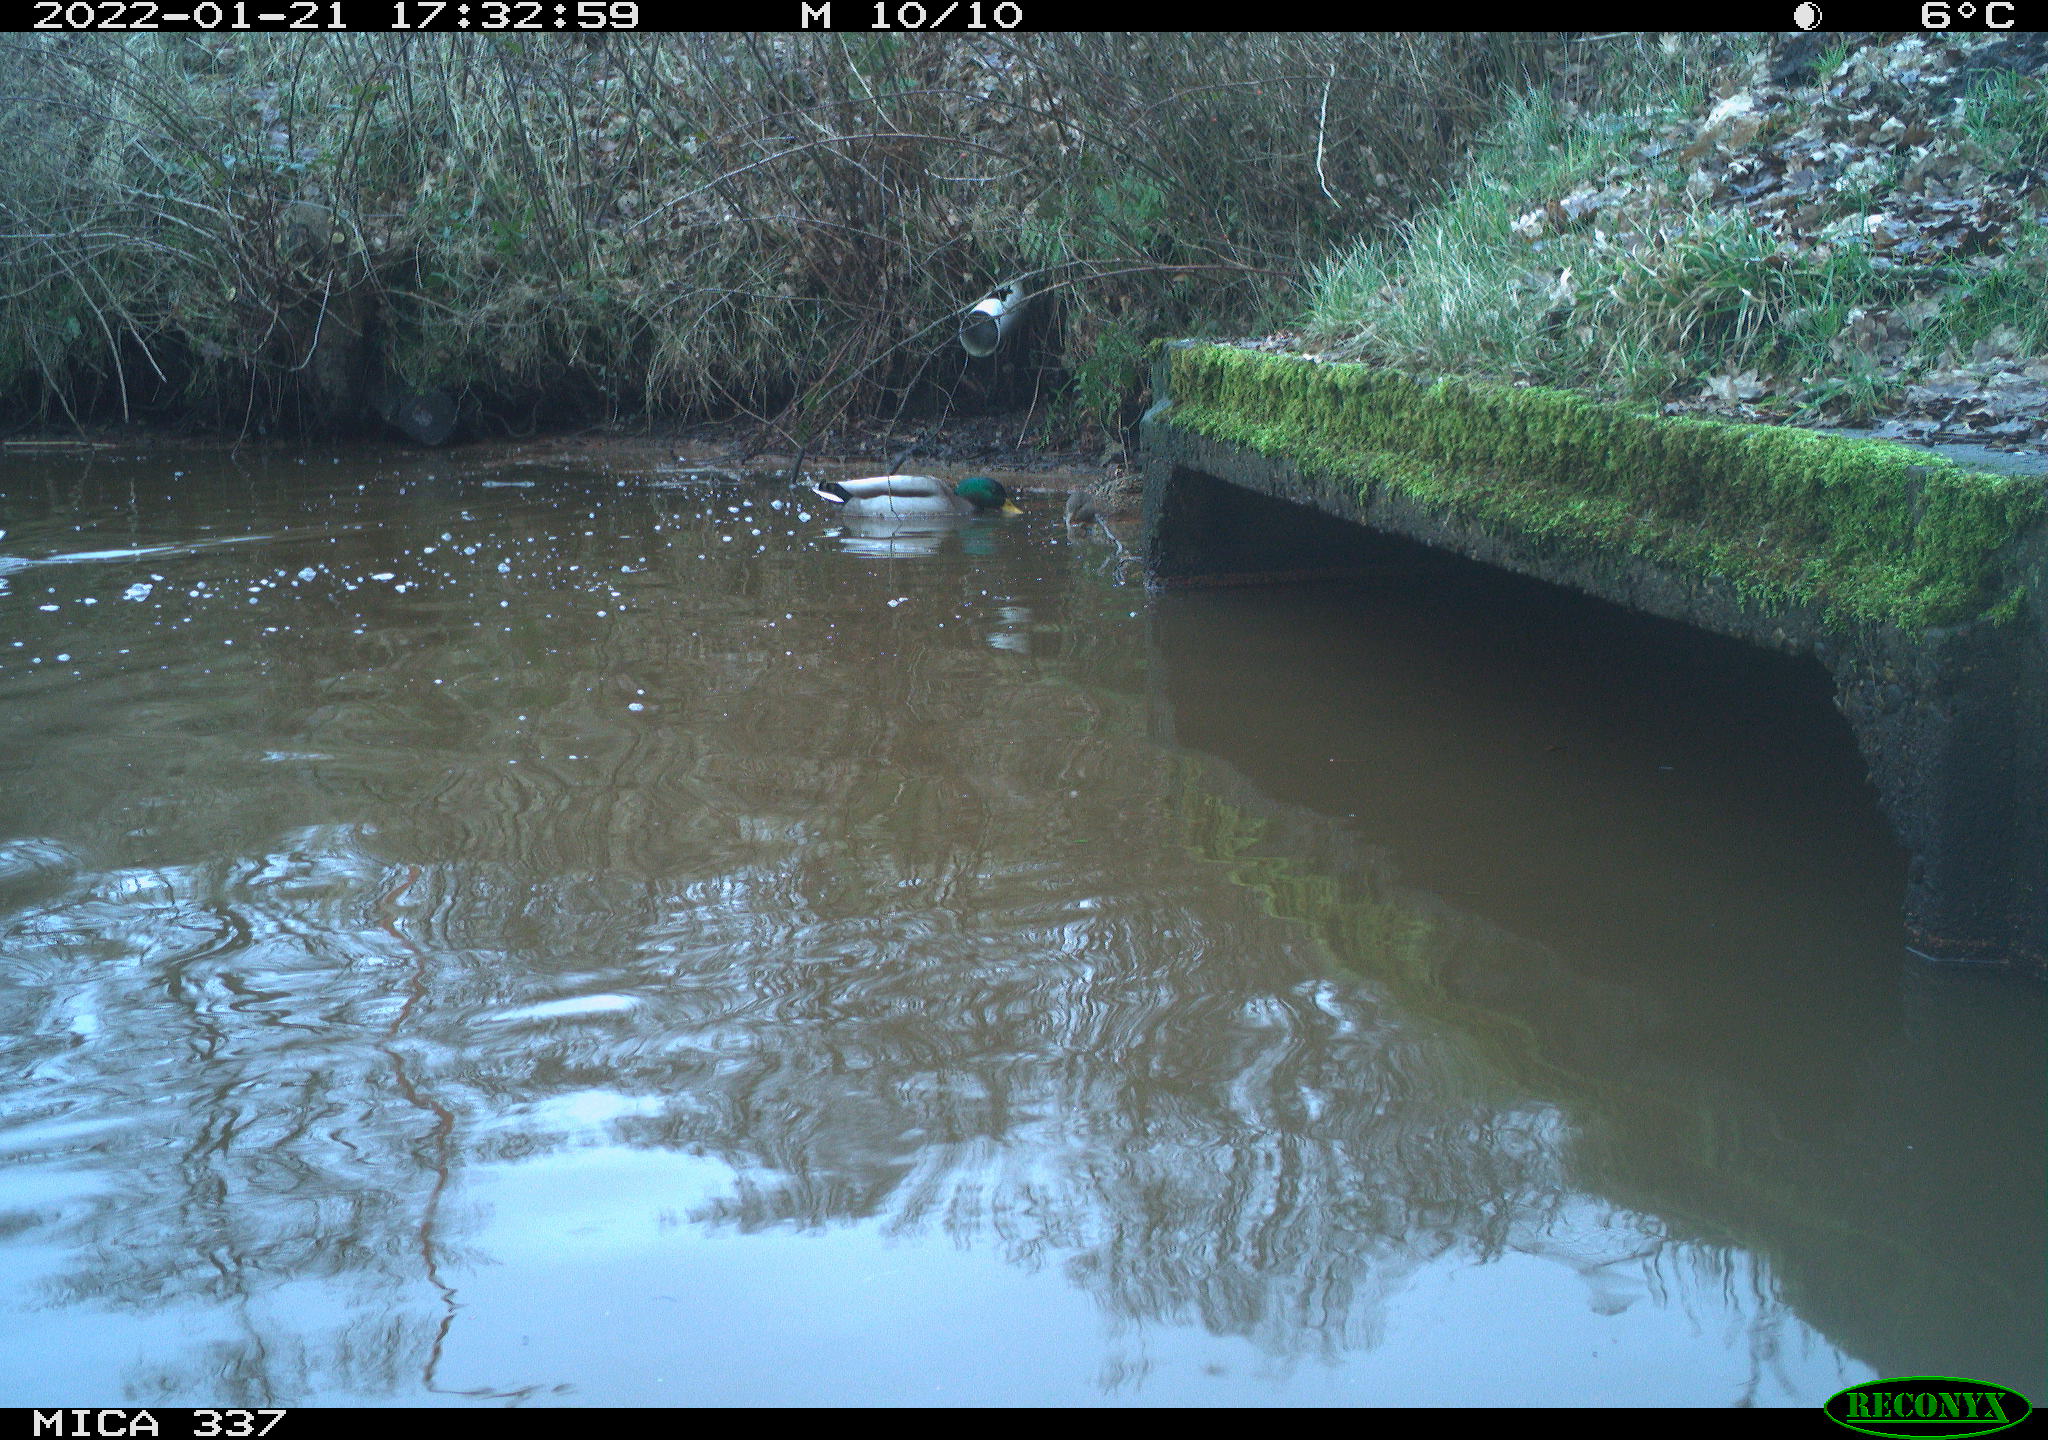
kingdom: Animalia
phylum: Chordata
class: Aves
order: Anseriformes
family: Anatidae
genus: Anas
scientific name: Anas platyrhynchos
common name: Mallard
